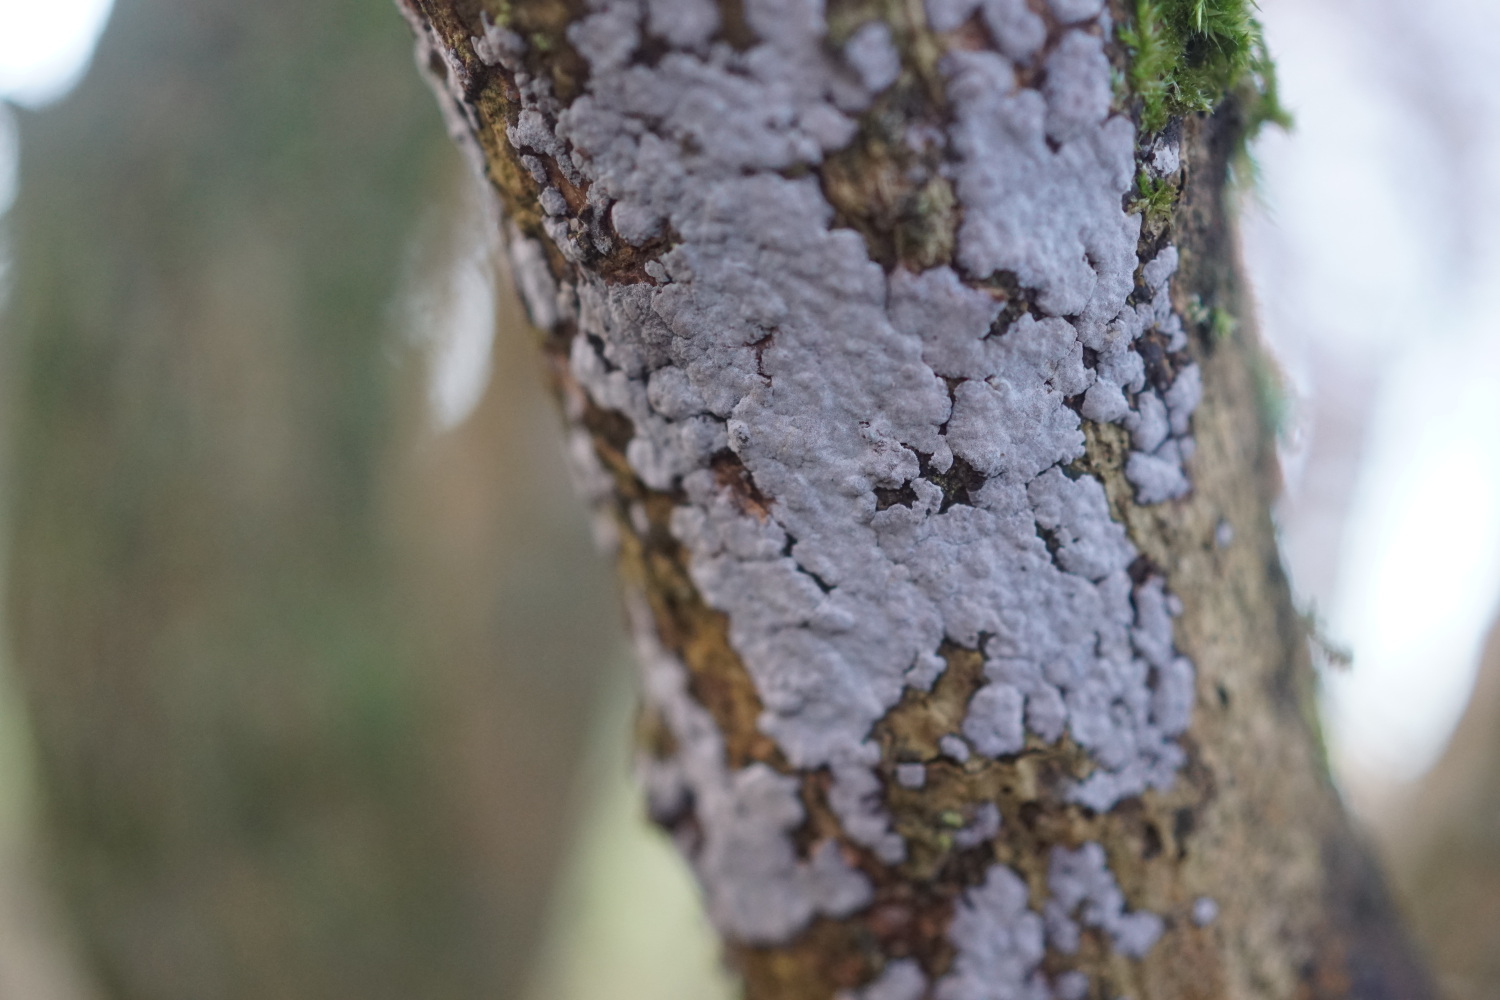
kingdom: Fungi
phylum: Basidiomycota
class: Agaricomycetes
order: Russulales
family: Peniophoraceae
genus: Peniophora
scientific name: Peniophora lycii
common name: grynet voksskind
